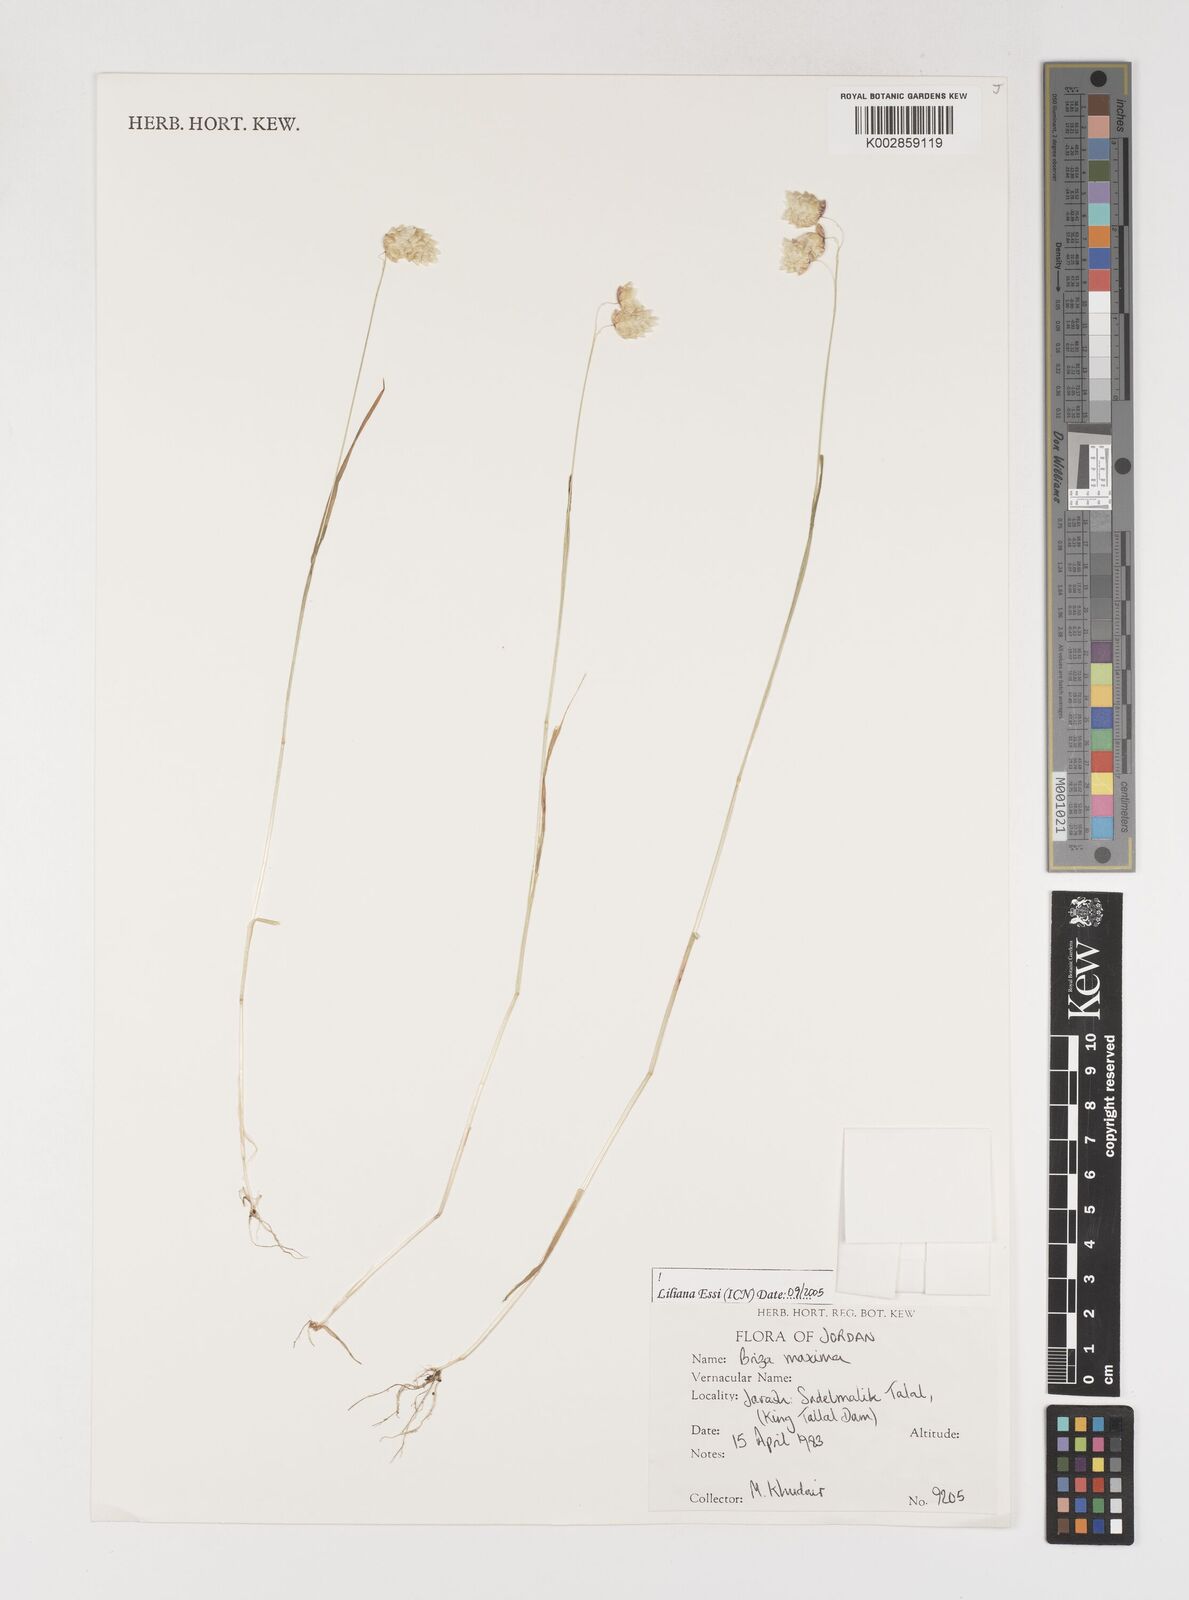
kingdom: Plantae
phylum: Tracheophyta
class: Liliopsida
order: Poales
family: Poaceae
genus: Briza
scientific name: Briza maxima
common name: Big quakinggrass
